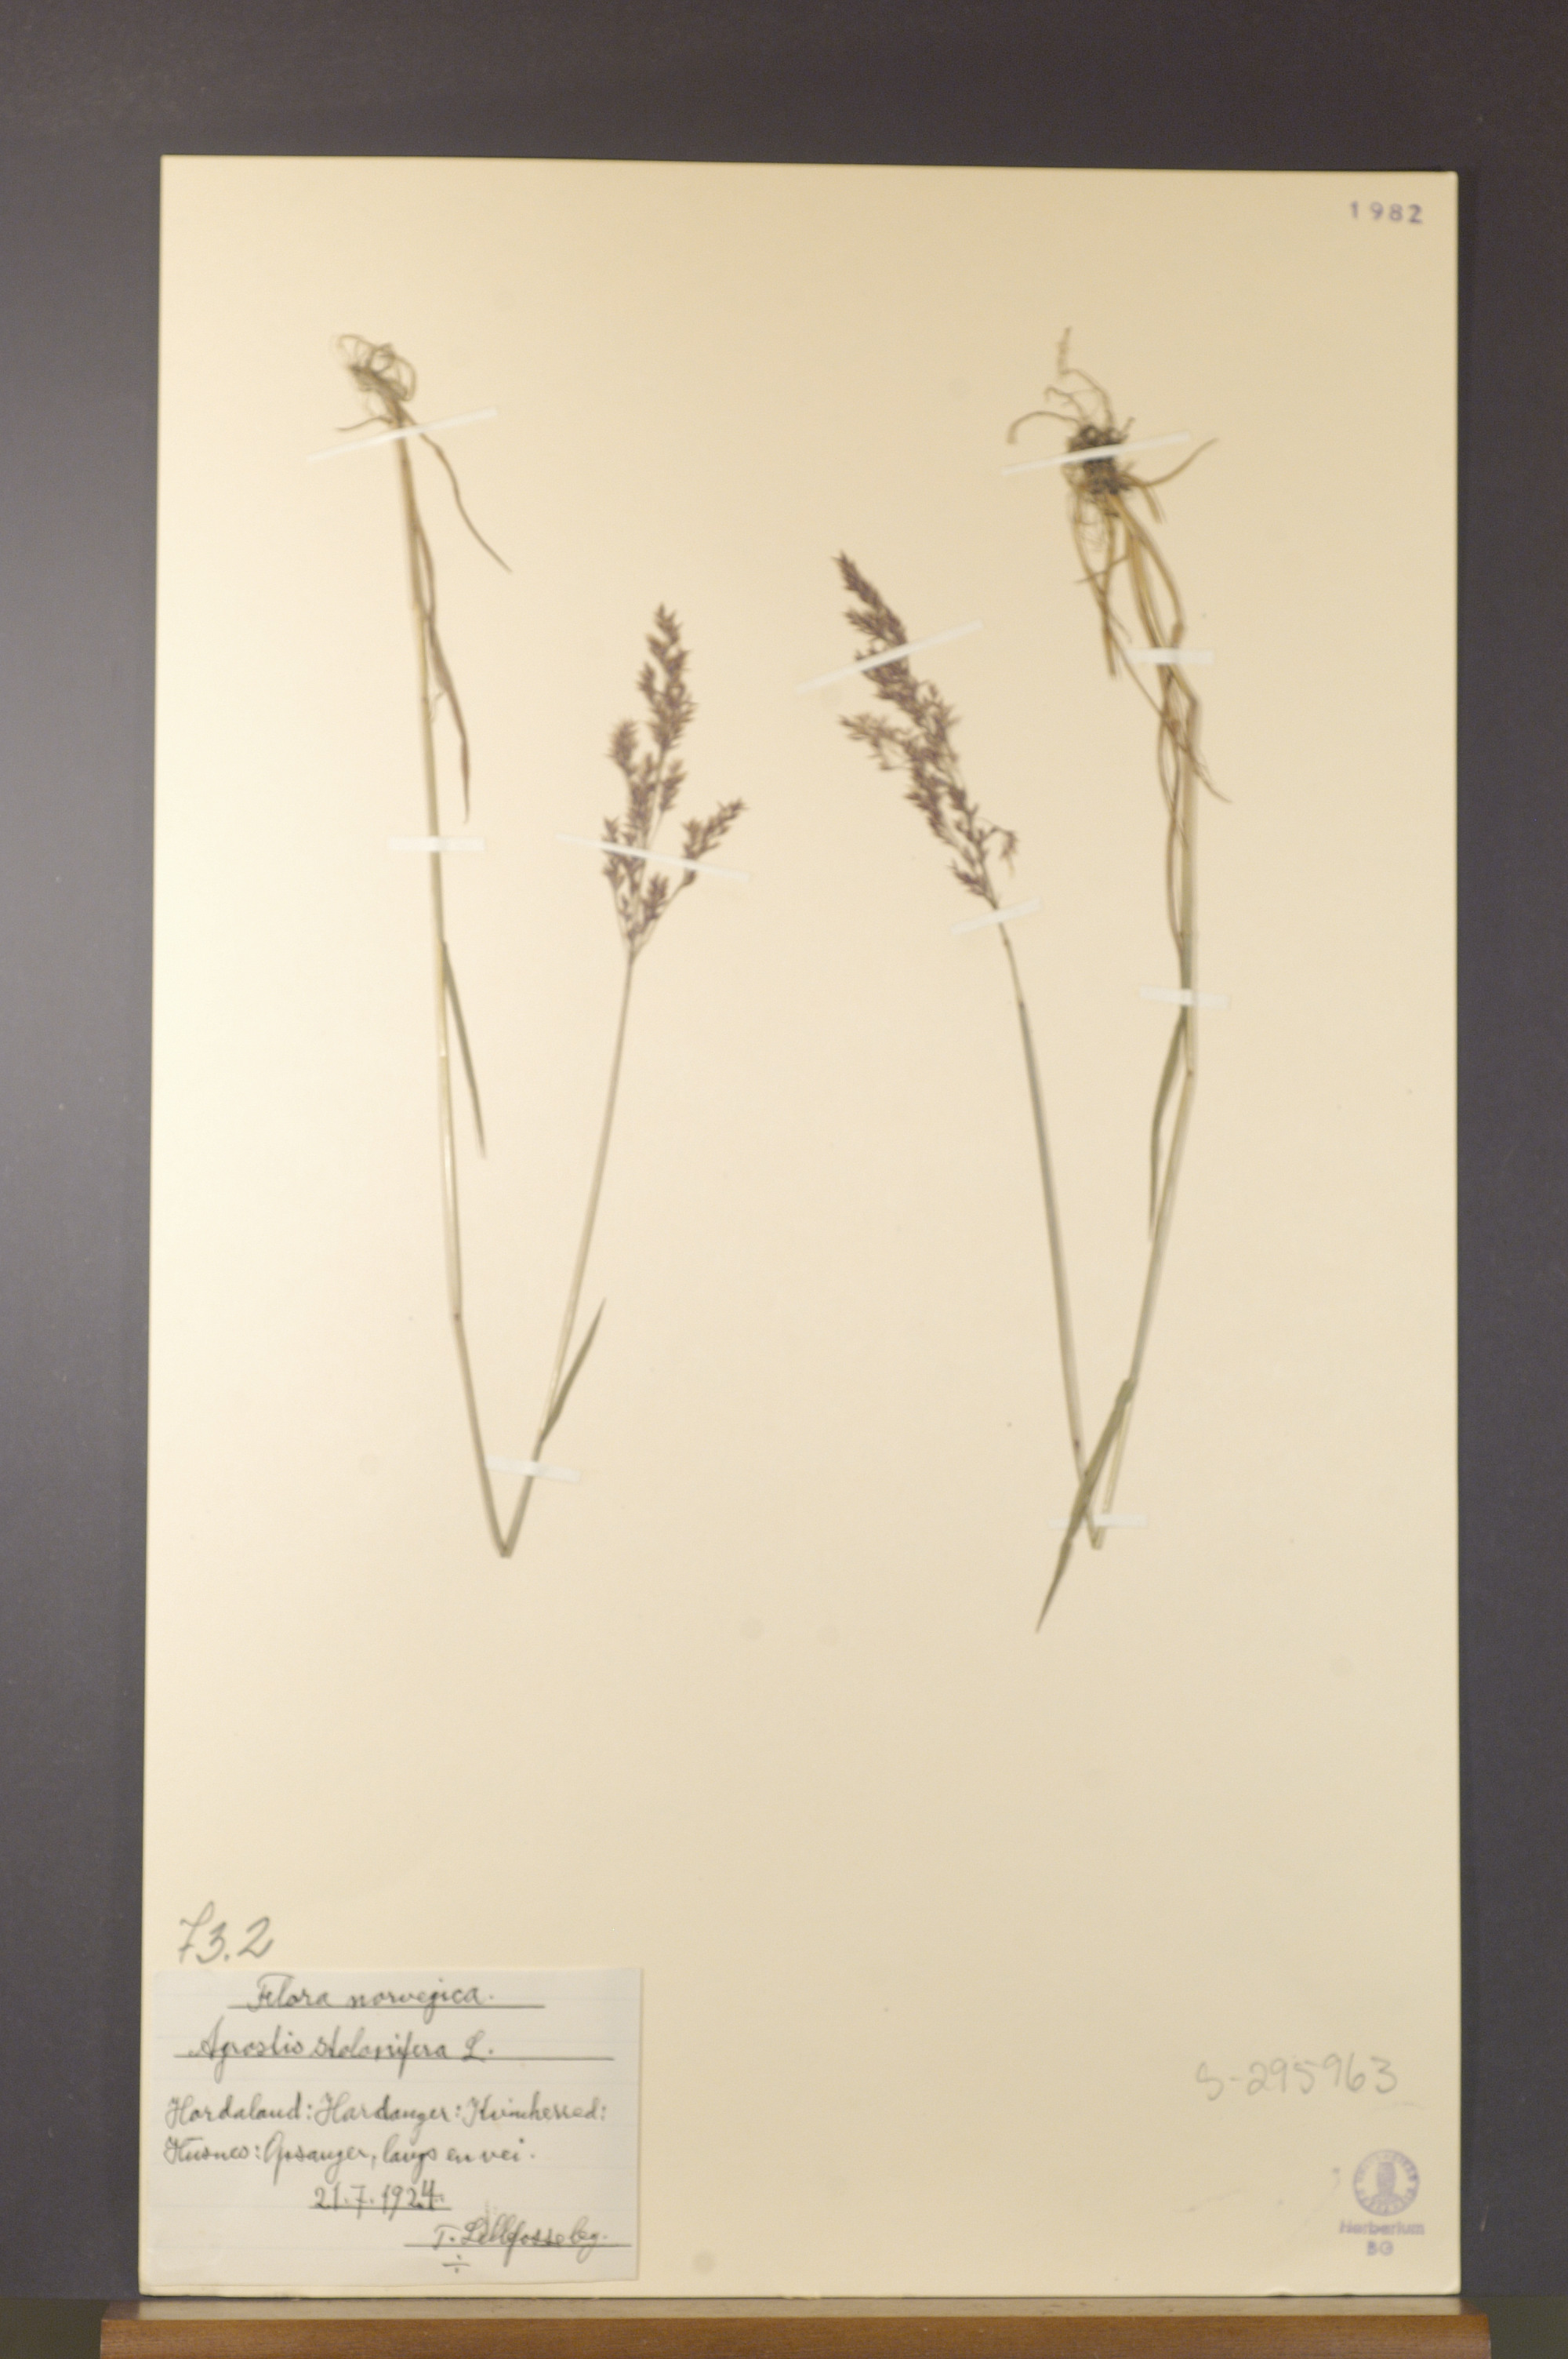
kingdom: Plantae
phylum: Tracheophyta
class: Liliopsida
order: Poales
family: Poaceae
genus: Agrostis
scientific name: Agrostis stolonifera
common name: Creeping bentgrass
